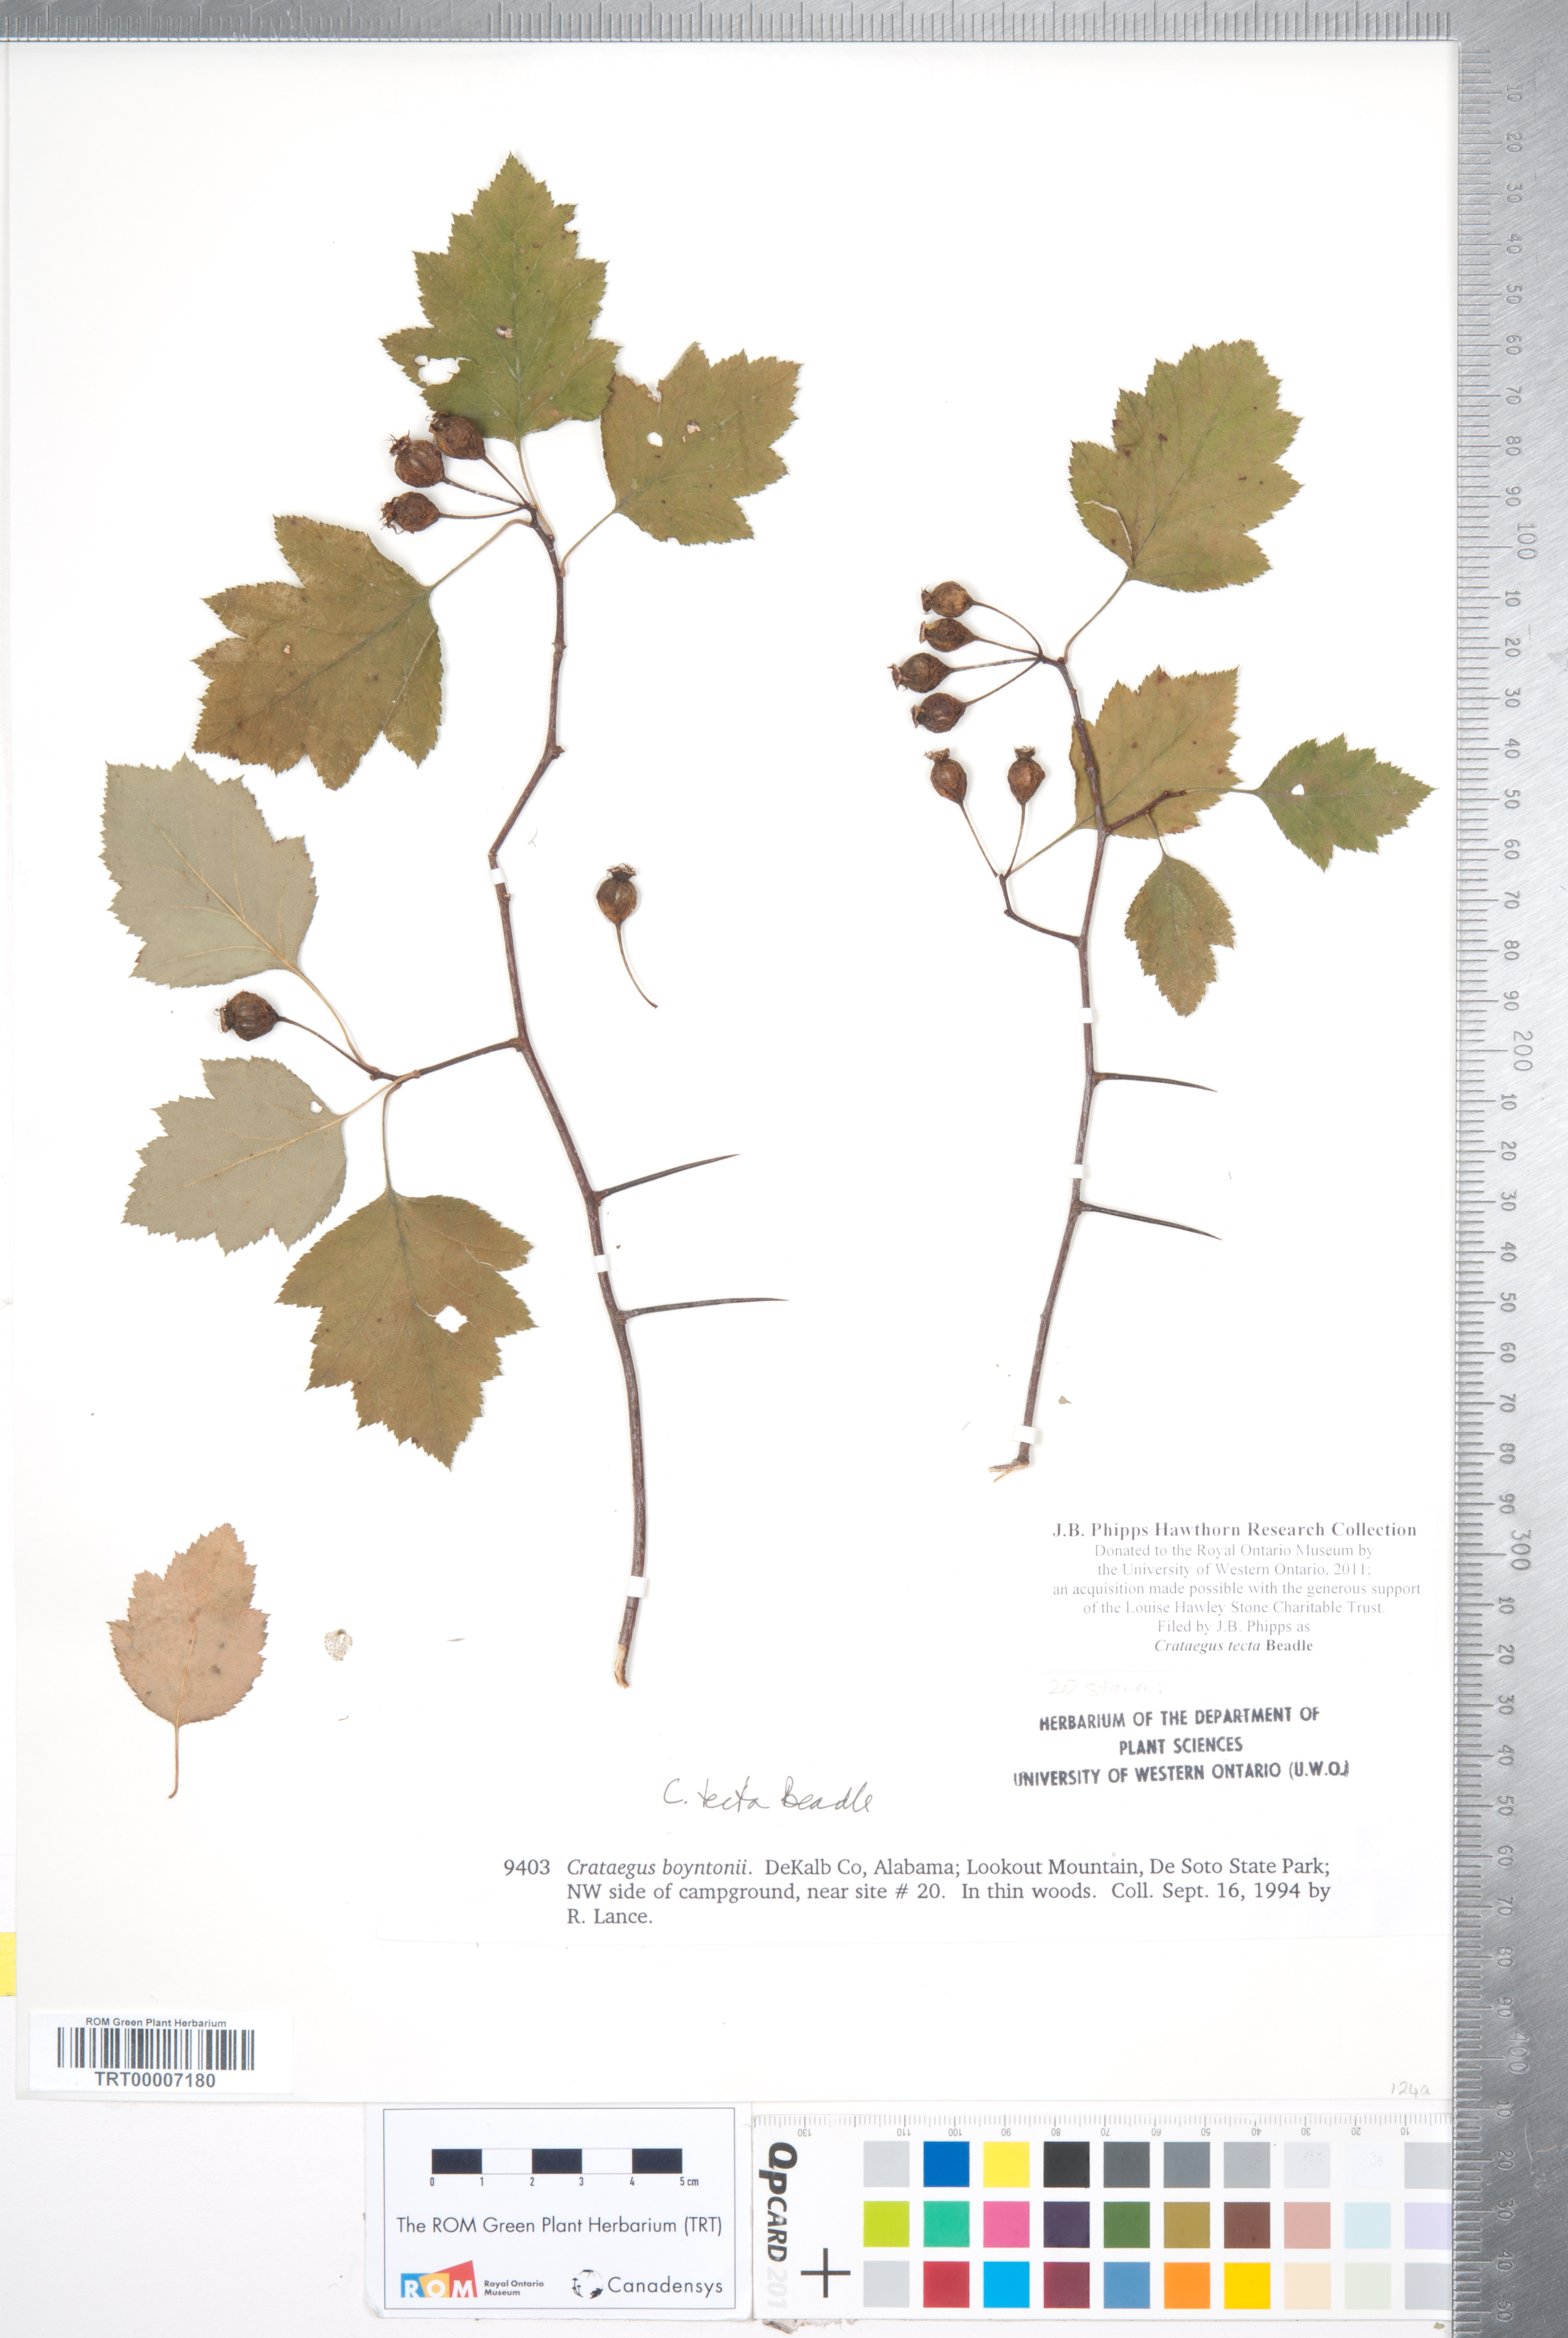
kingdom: Plantae
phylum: Tracheophyta
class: Magnoliopsida
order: Rosales
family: Rosaceae
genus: Crataegus
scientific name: Crataegus pulcherrima
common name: Beautiful hawthorn
